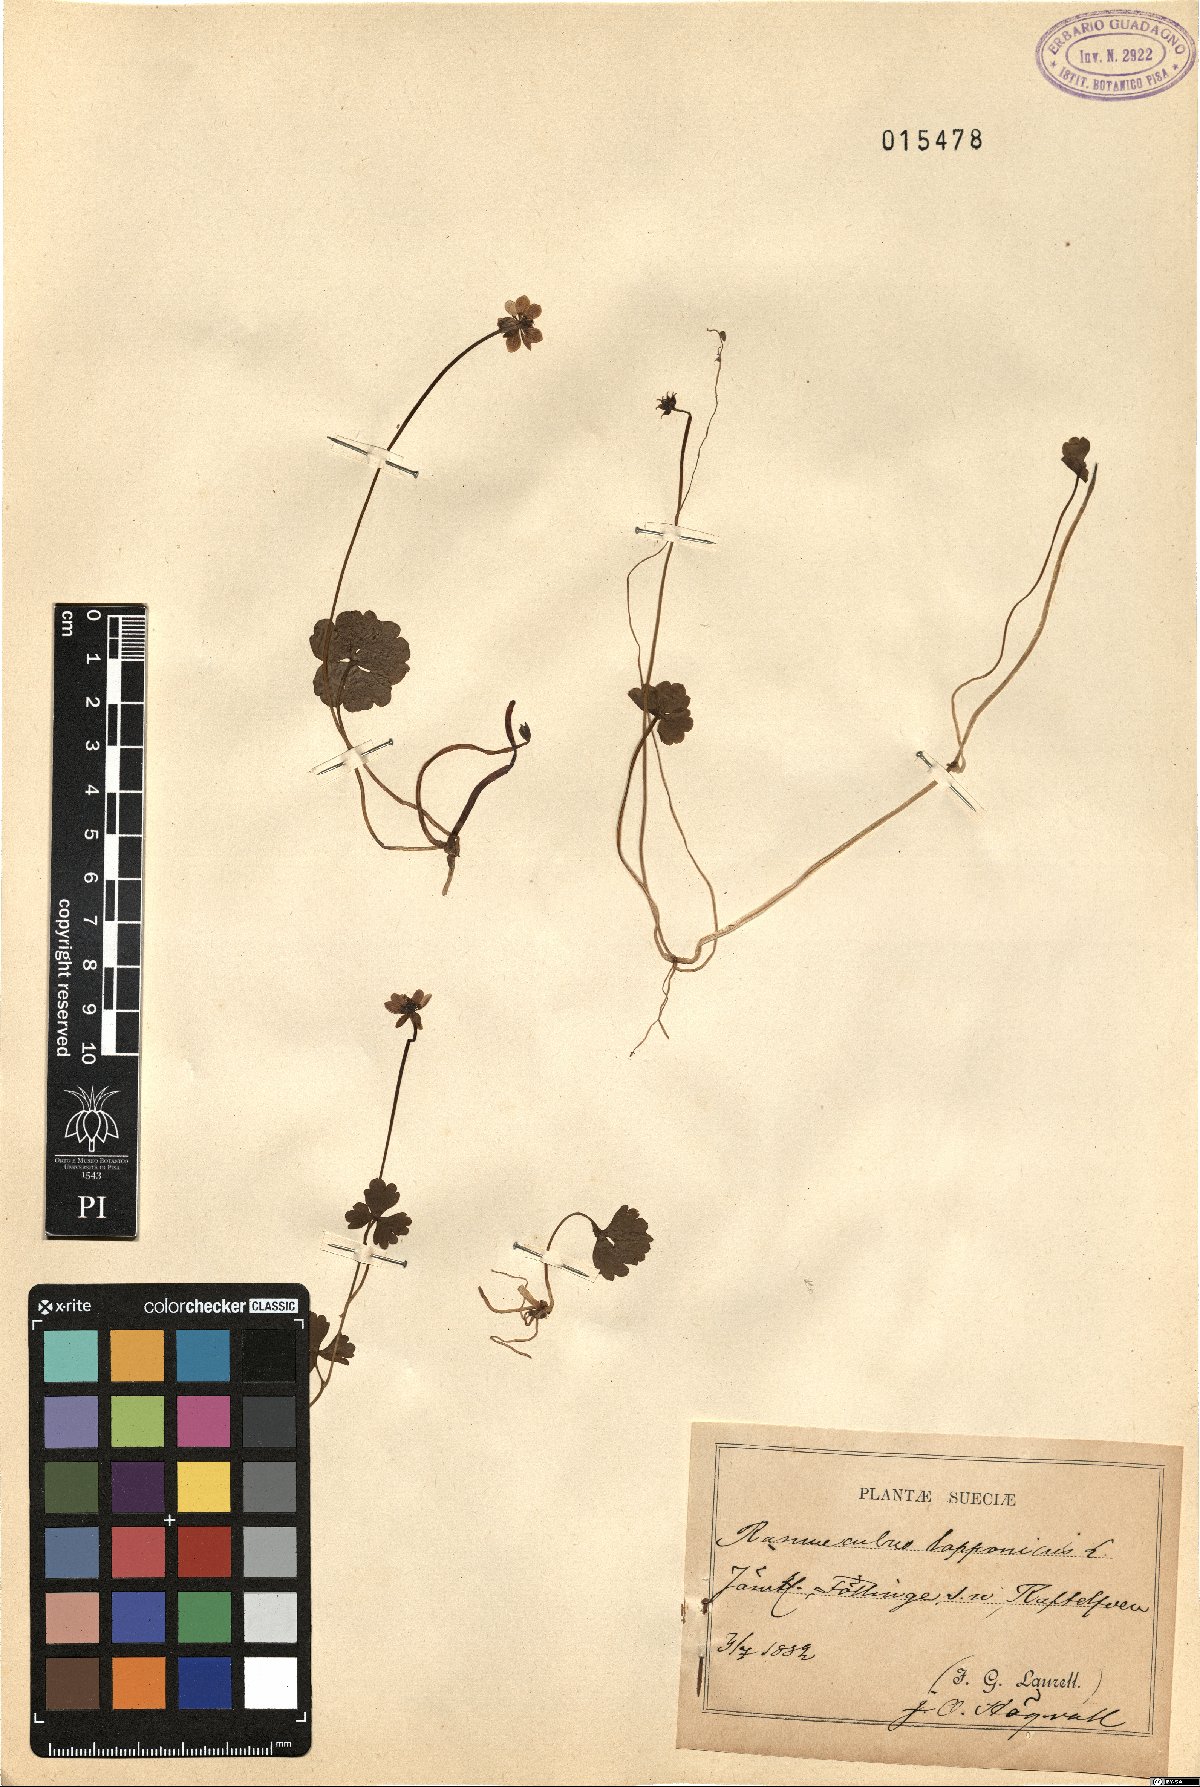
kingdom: Plantae
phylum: Tracheophyta
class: Magnoliopsida
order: Ranunculales
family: Ranunculaceae
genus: Coptidium
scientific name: Coptidium lapponicum
